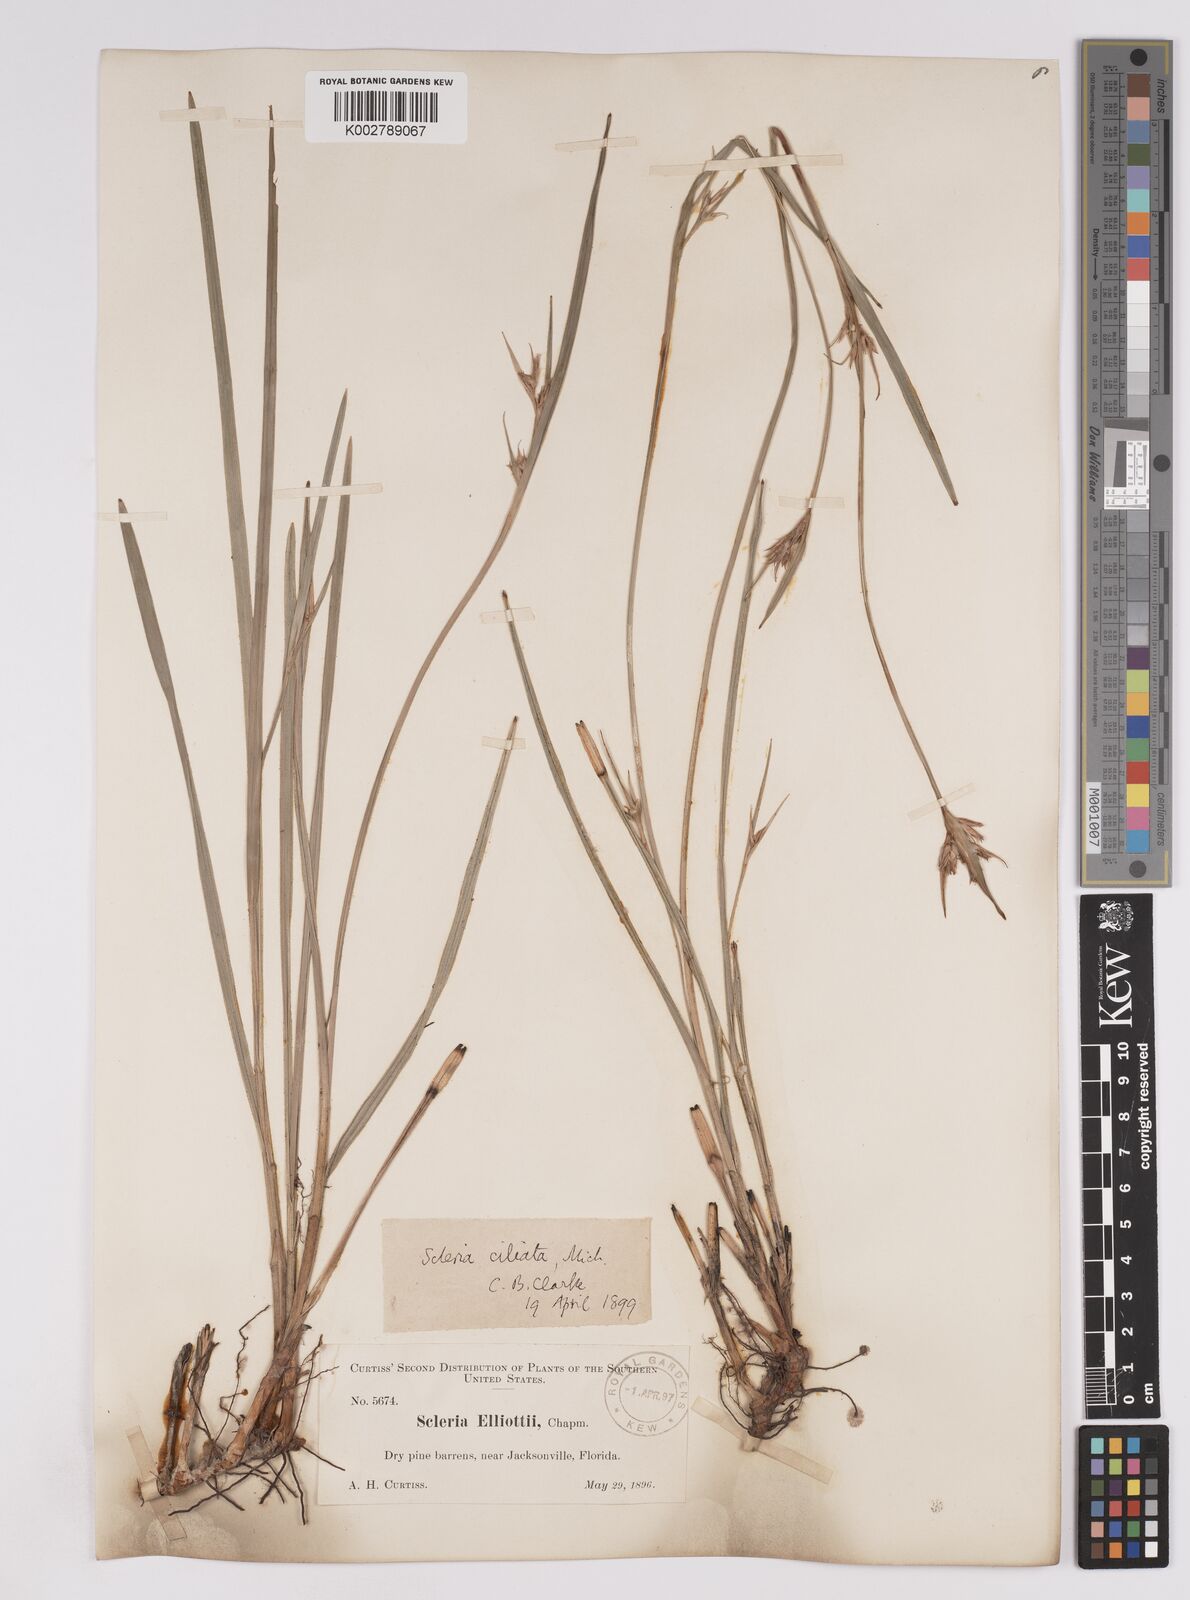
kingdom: Plantae
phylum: Tracheophyta
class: Liliopsida
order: Poales
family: Cyperaceae
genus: Scleria
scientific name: Scleria ciliata
